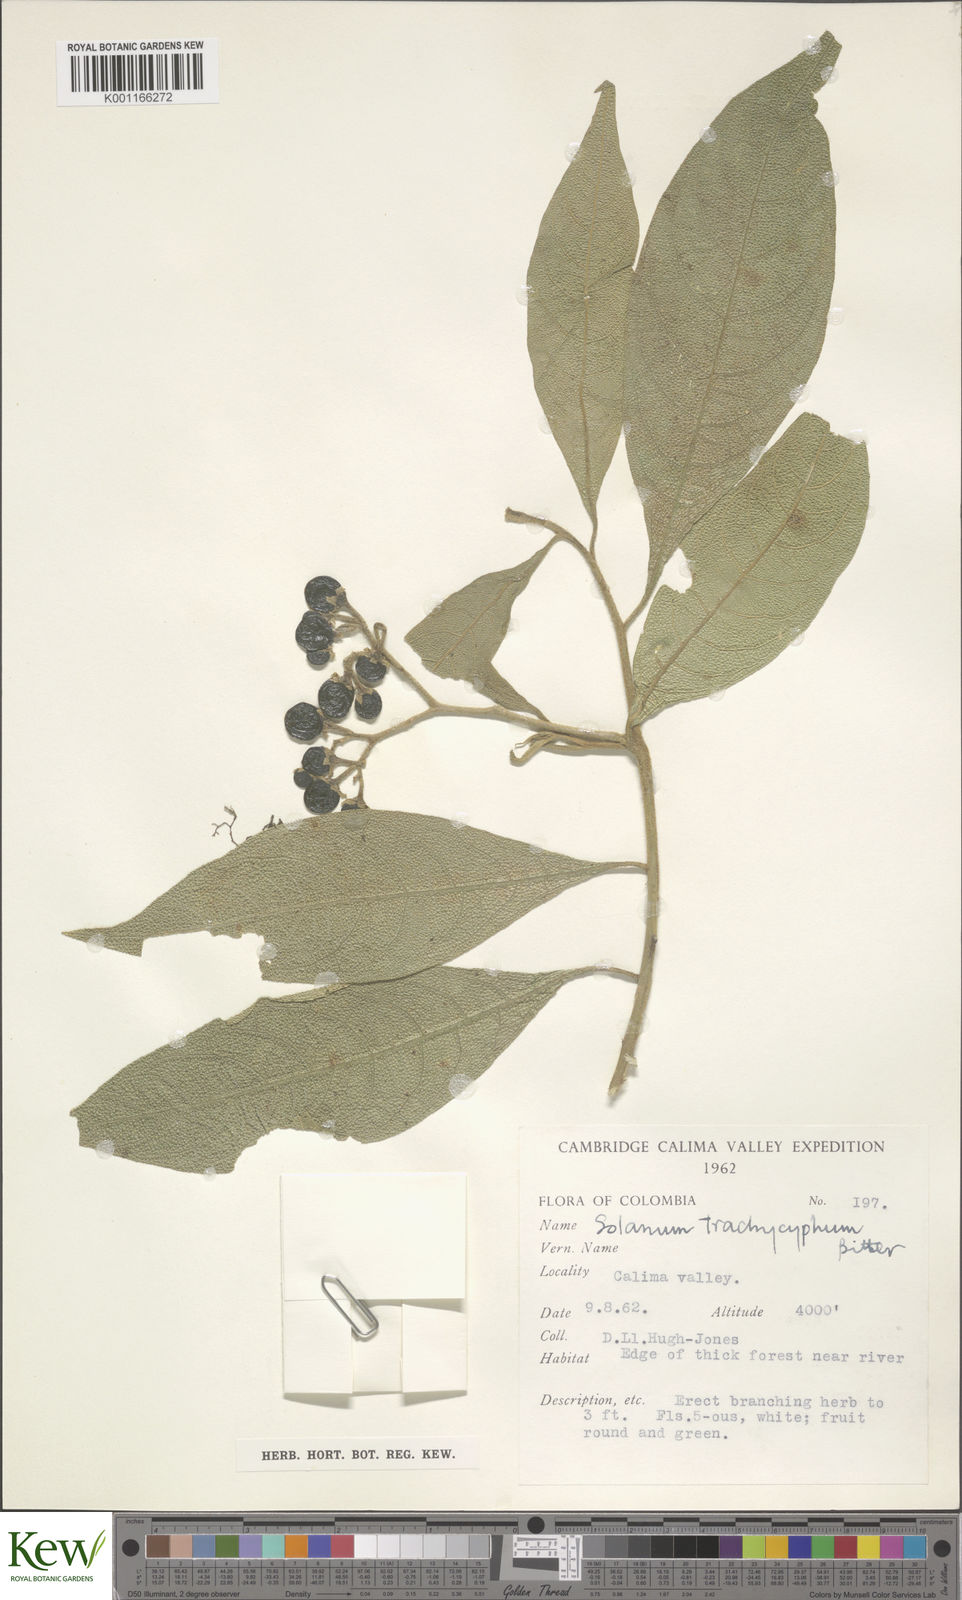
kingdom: Plantae
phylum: Tracheophyta
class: Magnoliopsida
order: Solanales
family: Solanaceae
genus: Solanum
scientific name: Solanum trachycyphum
